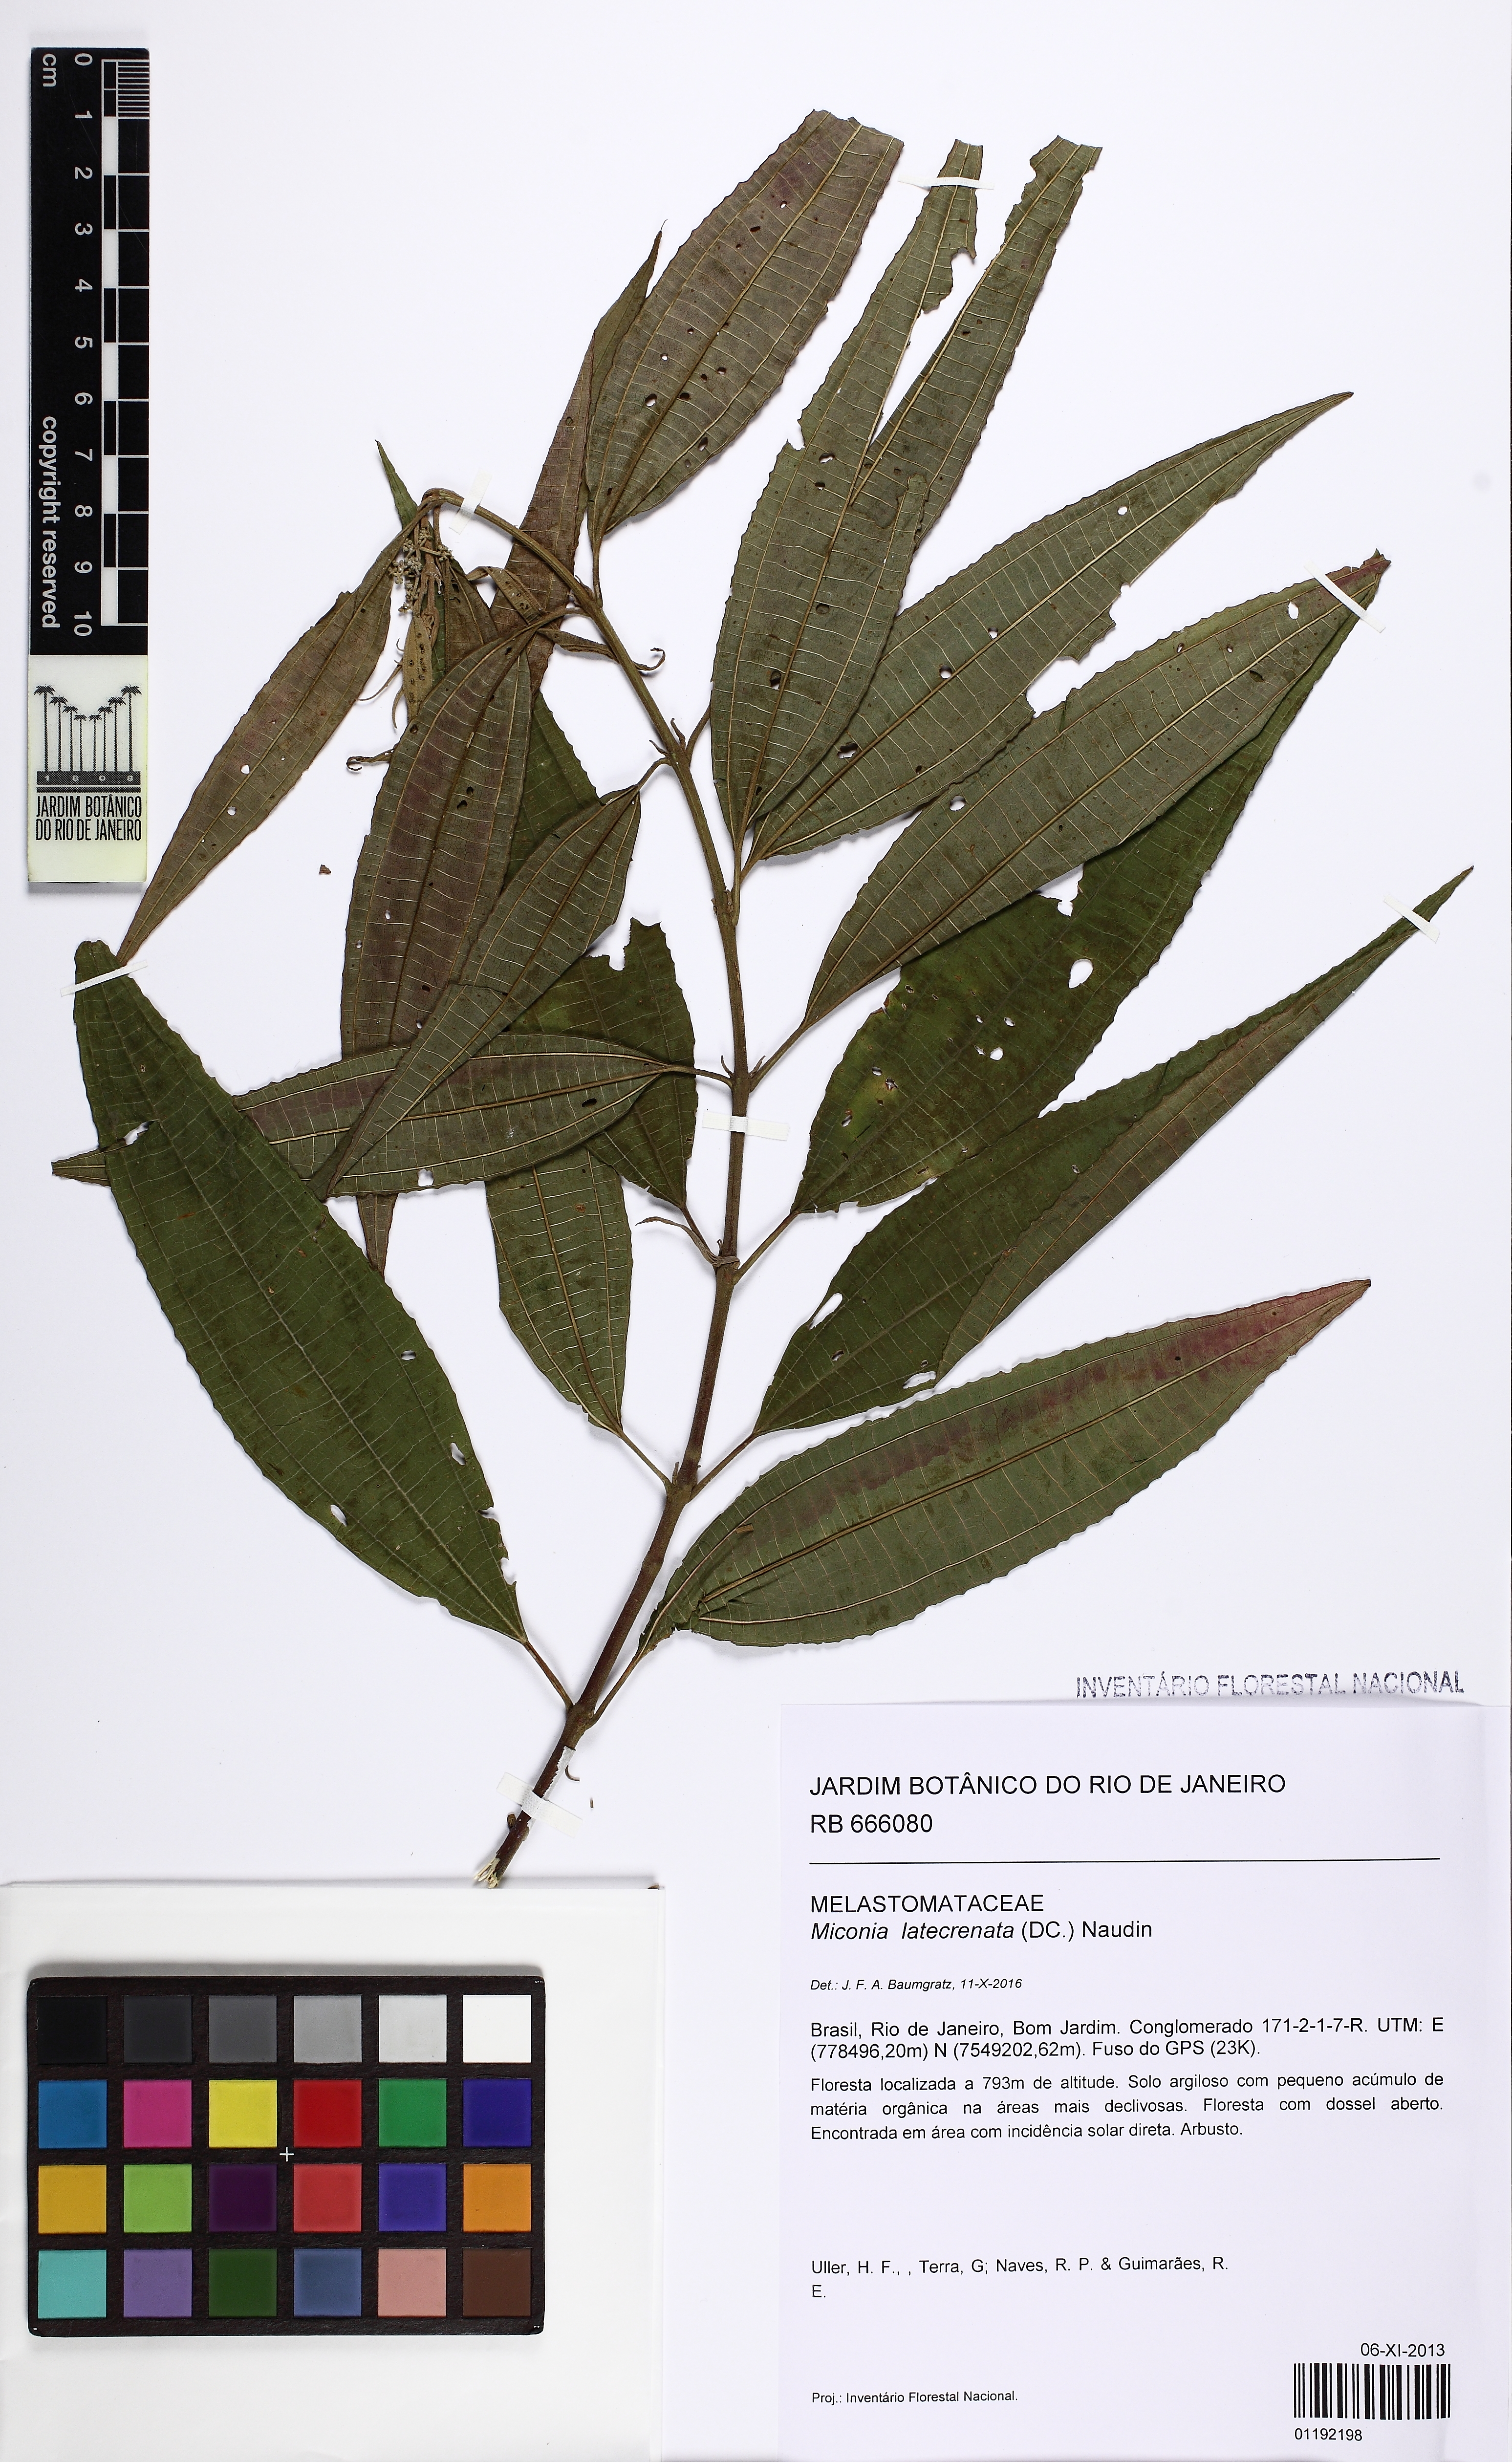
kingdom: Plantae
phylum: Tracheophyta
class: Magnoliopsida
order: Myrtales
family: Melastomataceae
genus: Miconia
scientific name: Miconia latecrenata
